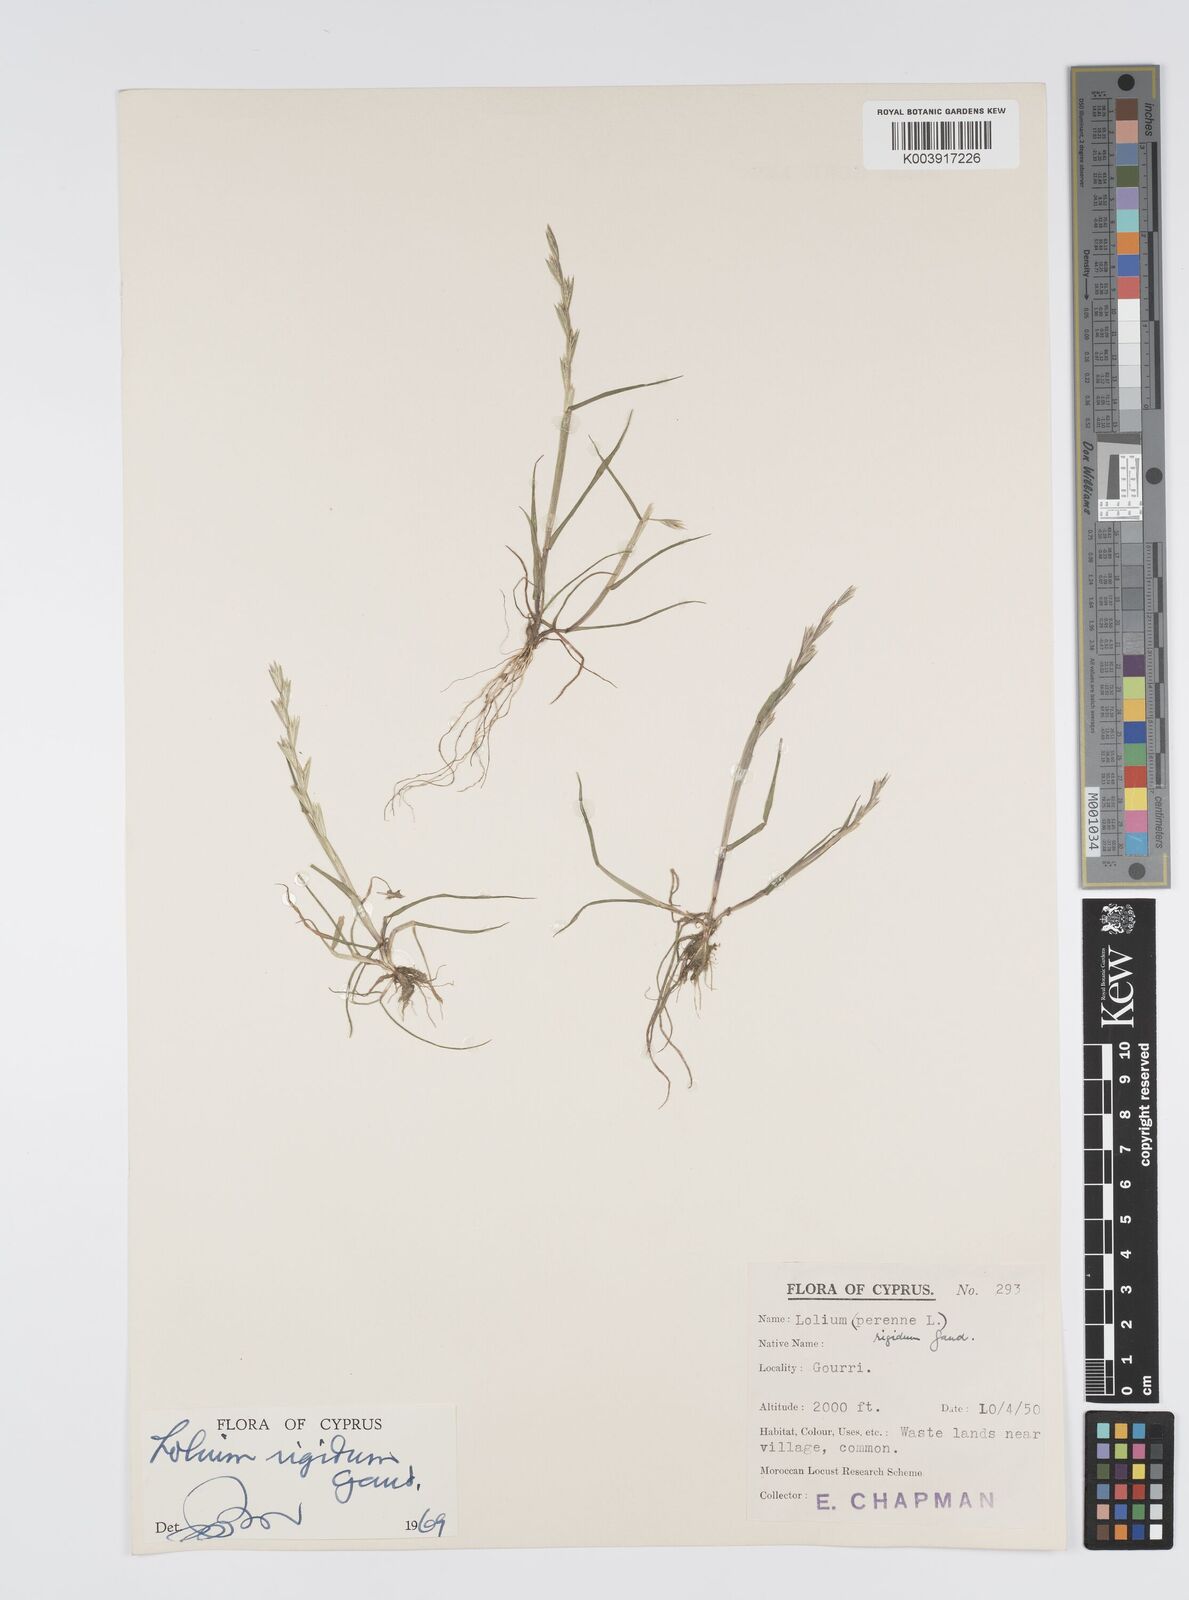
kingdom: Plantae
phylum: Tracheophyta
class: Liliopsida
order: Poales
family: Poaceae
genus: Lolium
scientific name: Lolium rigidum
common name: Wimmera ryegrass
